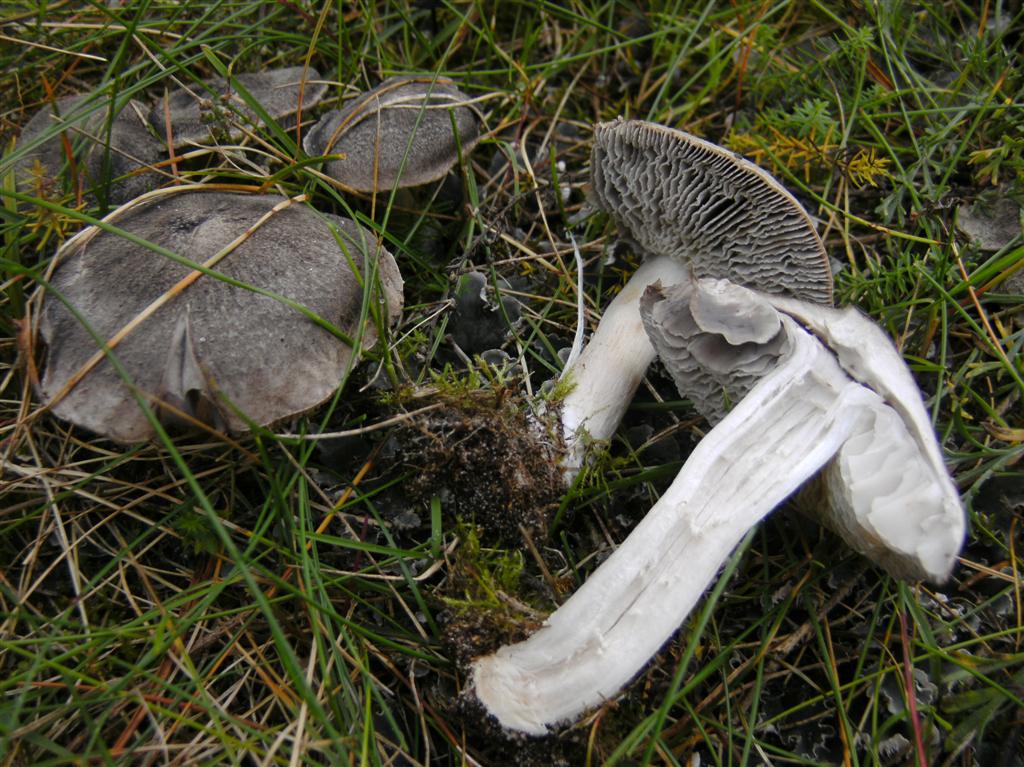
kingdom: Fungi
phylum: Basidiomycota
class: Agaricomycetes
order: Agaricales
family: Tricholomataceae
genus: Tricholoma
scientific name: Tricholoma terreum
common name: jordfarvet ridderhat
